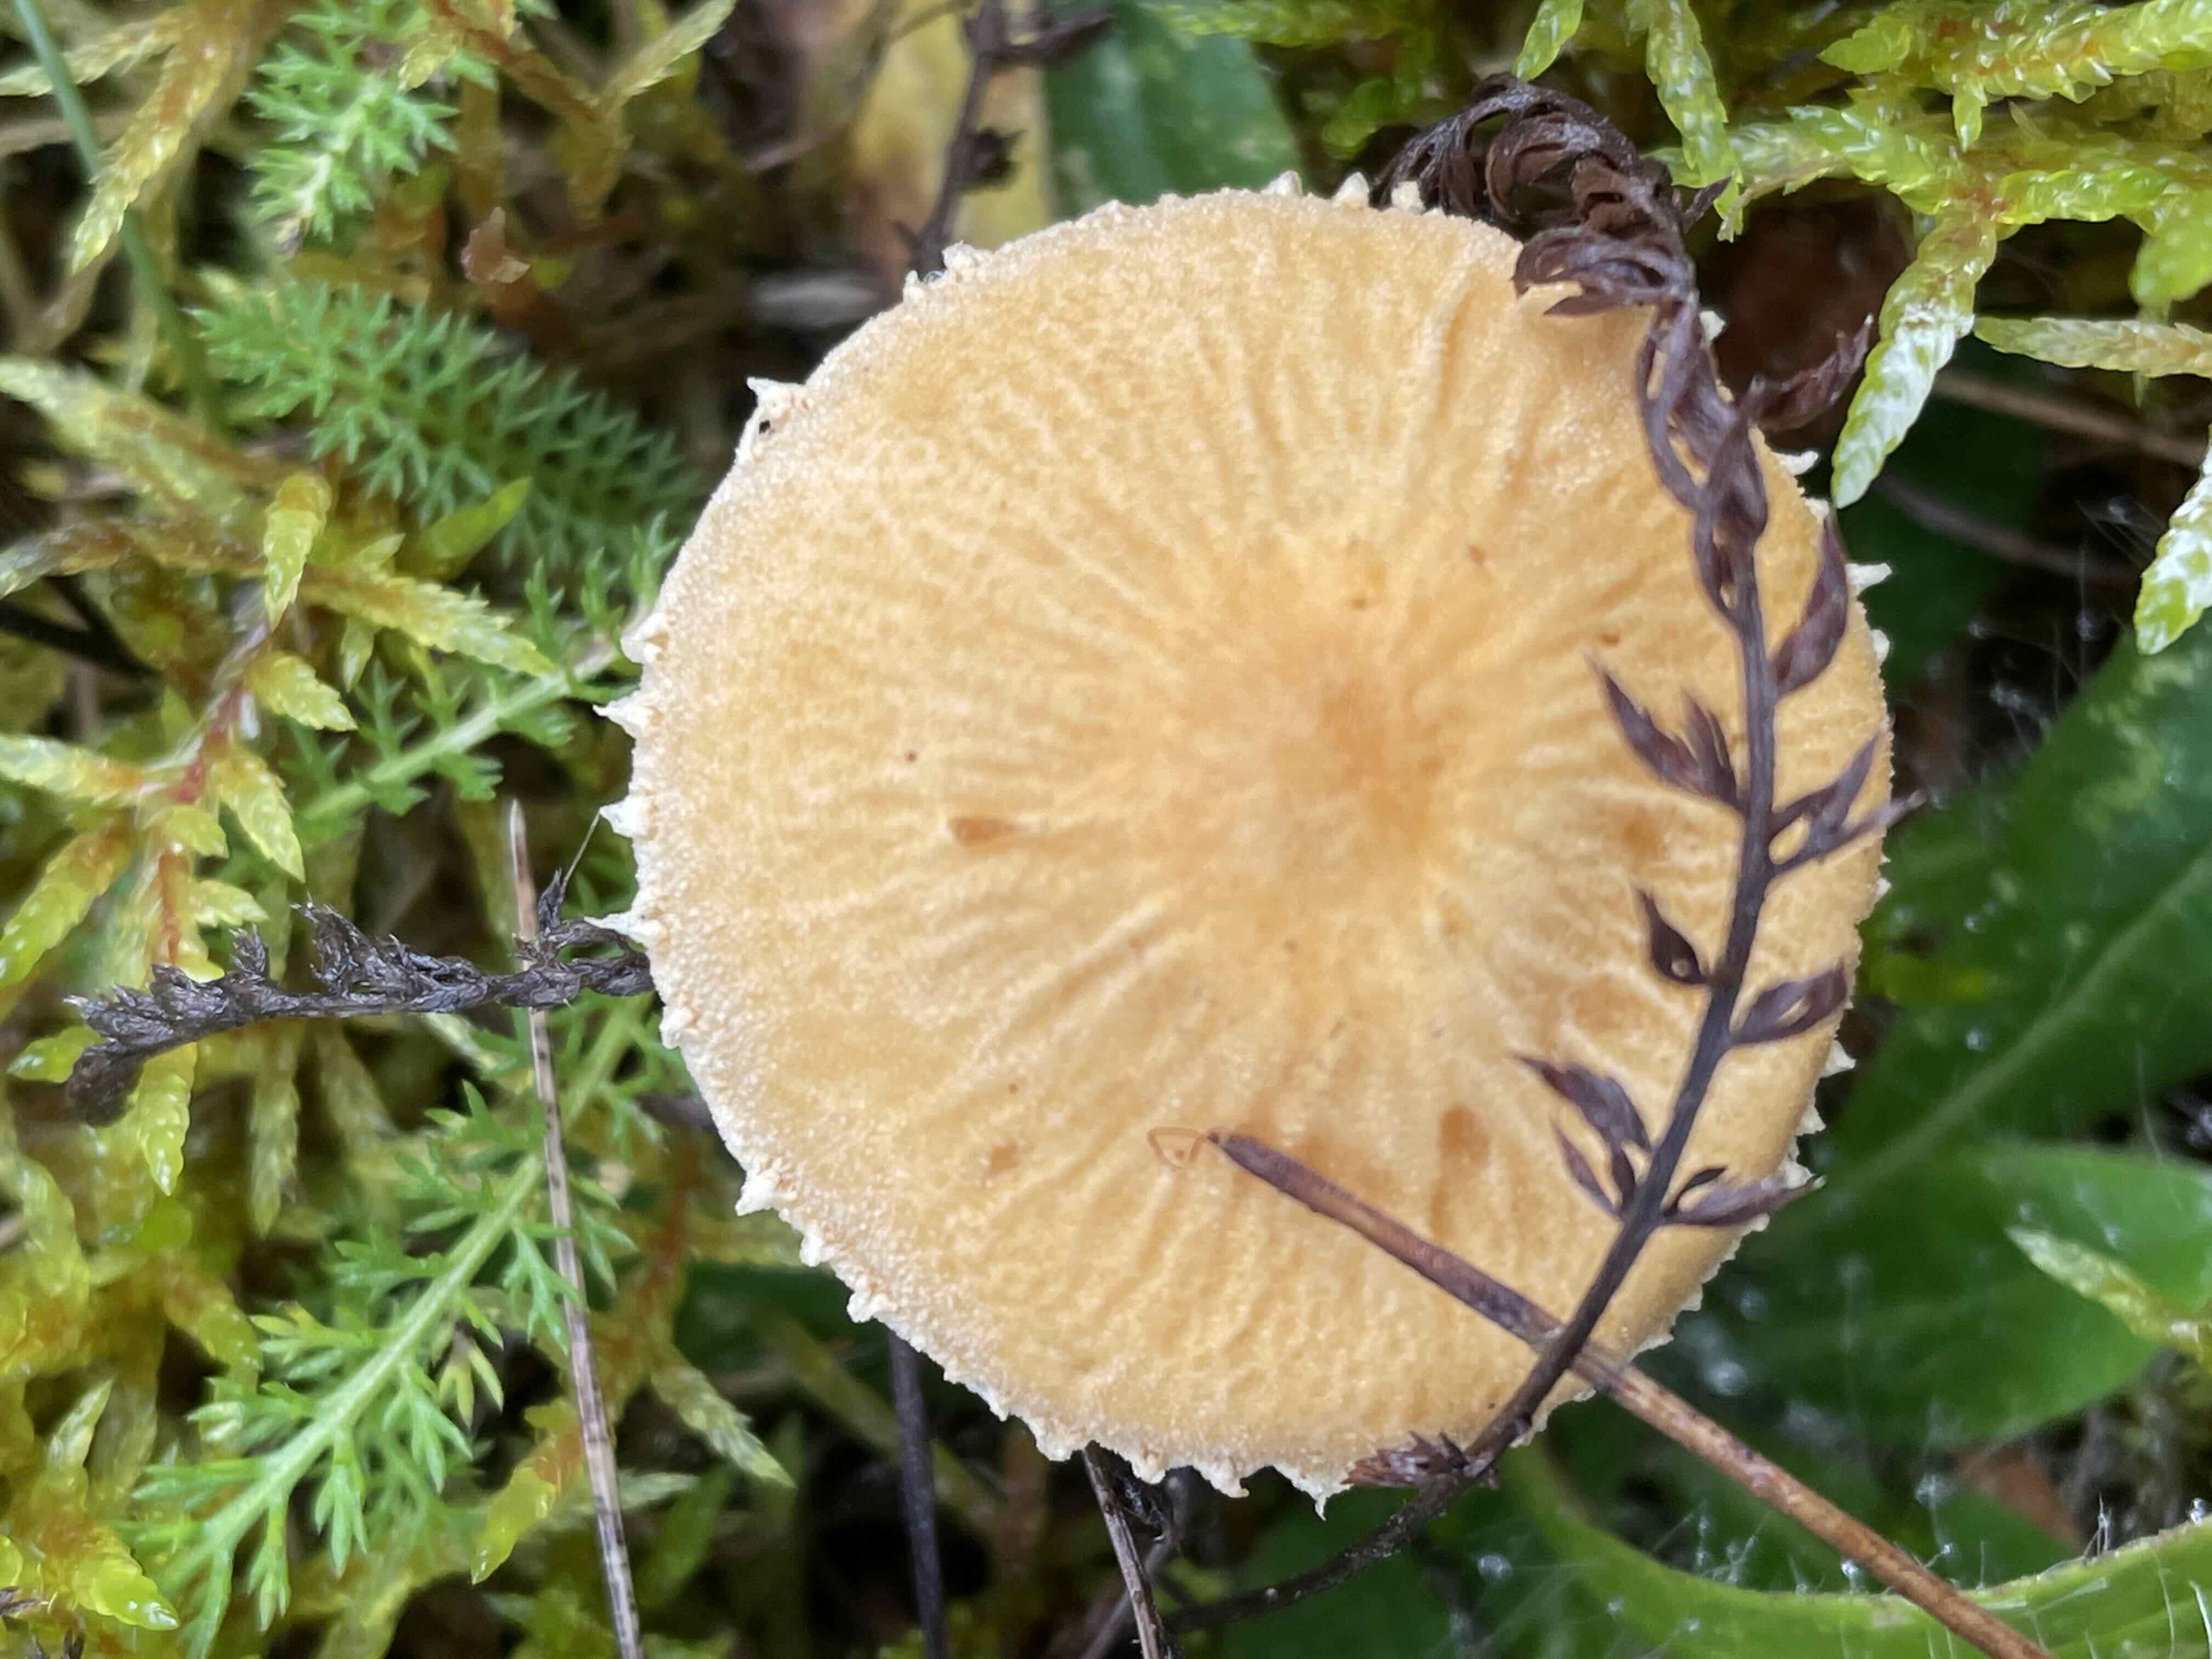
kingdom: Fungi
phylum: Basidiomycota
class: Agaricomycetes
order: Agaricales
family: Tricholomataceae
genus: Cystoderma
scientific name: Cystoderma amianthinum
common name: okkergul grynhat
